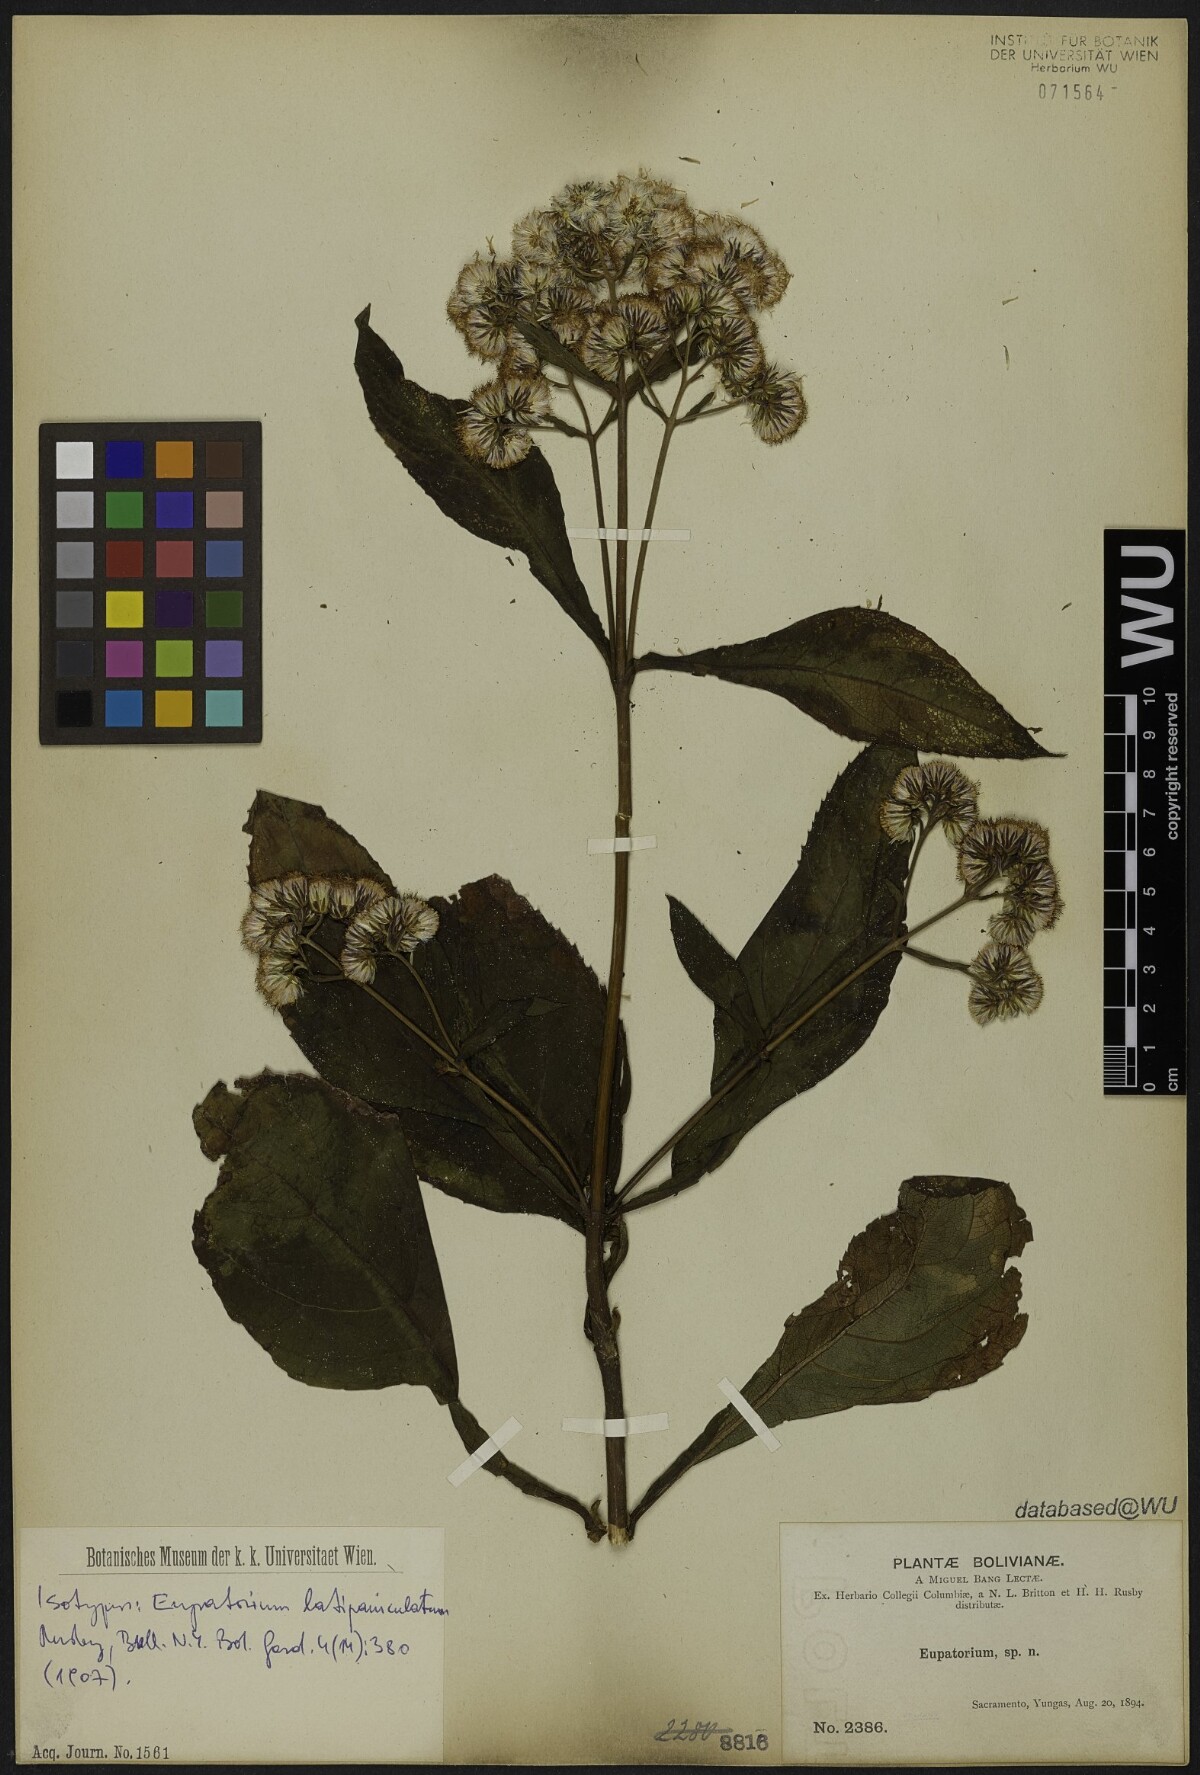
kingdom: Plantae
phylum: Tracheophyta
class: Magnoliopsida
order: Asterales
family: Asteraceae
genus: Ayapanopsis
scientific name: Ayapanopsis latipaniculata
